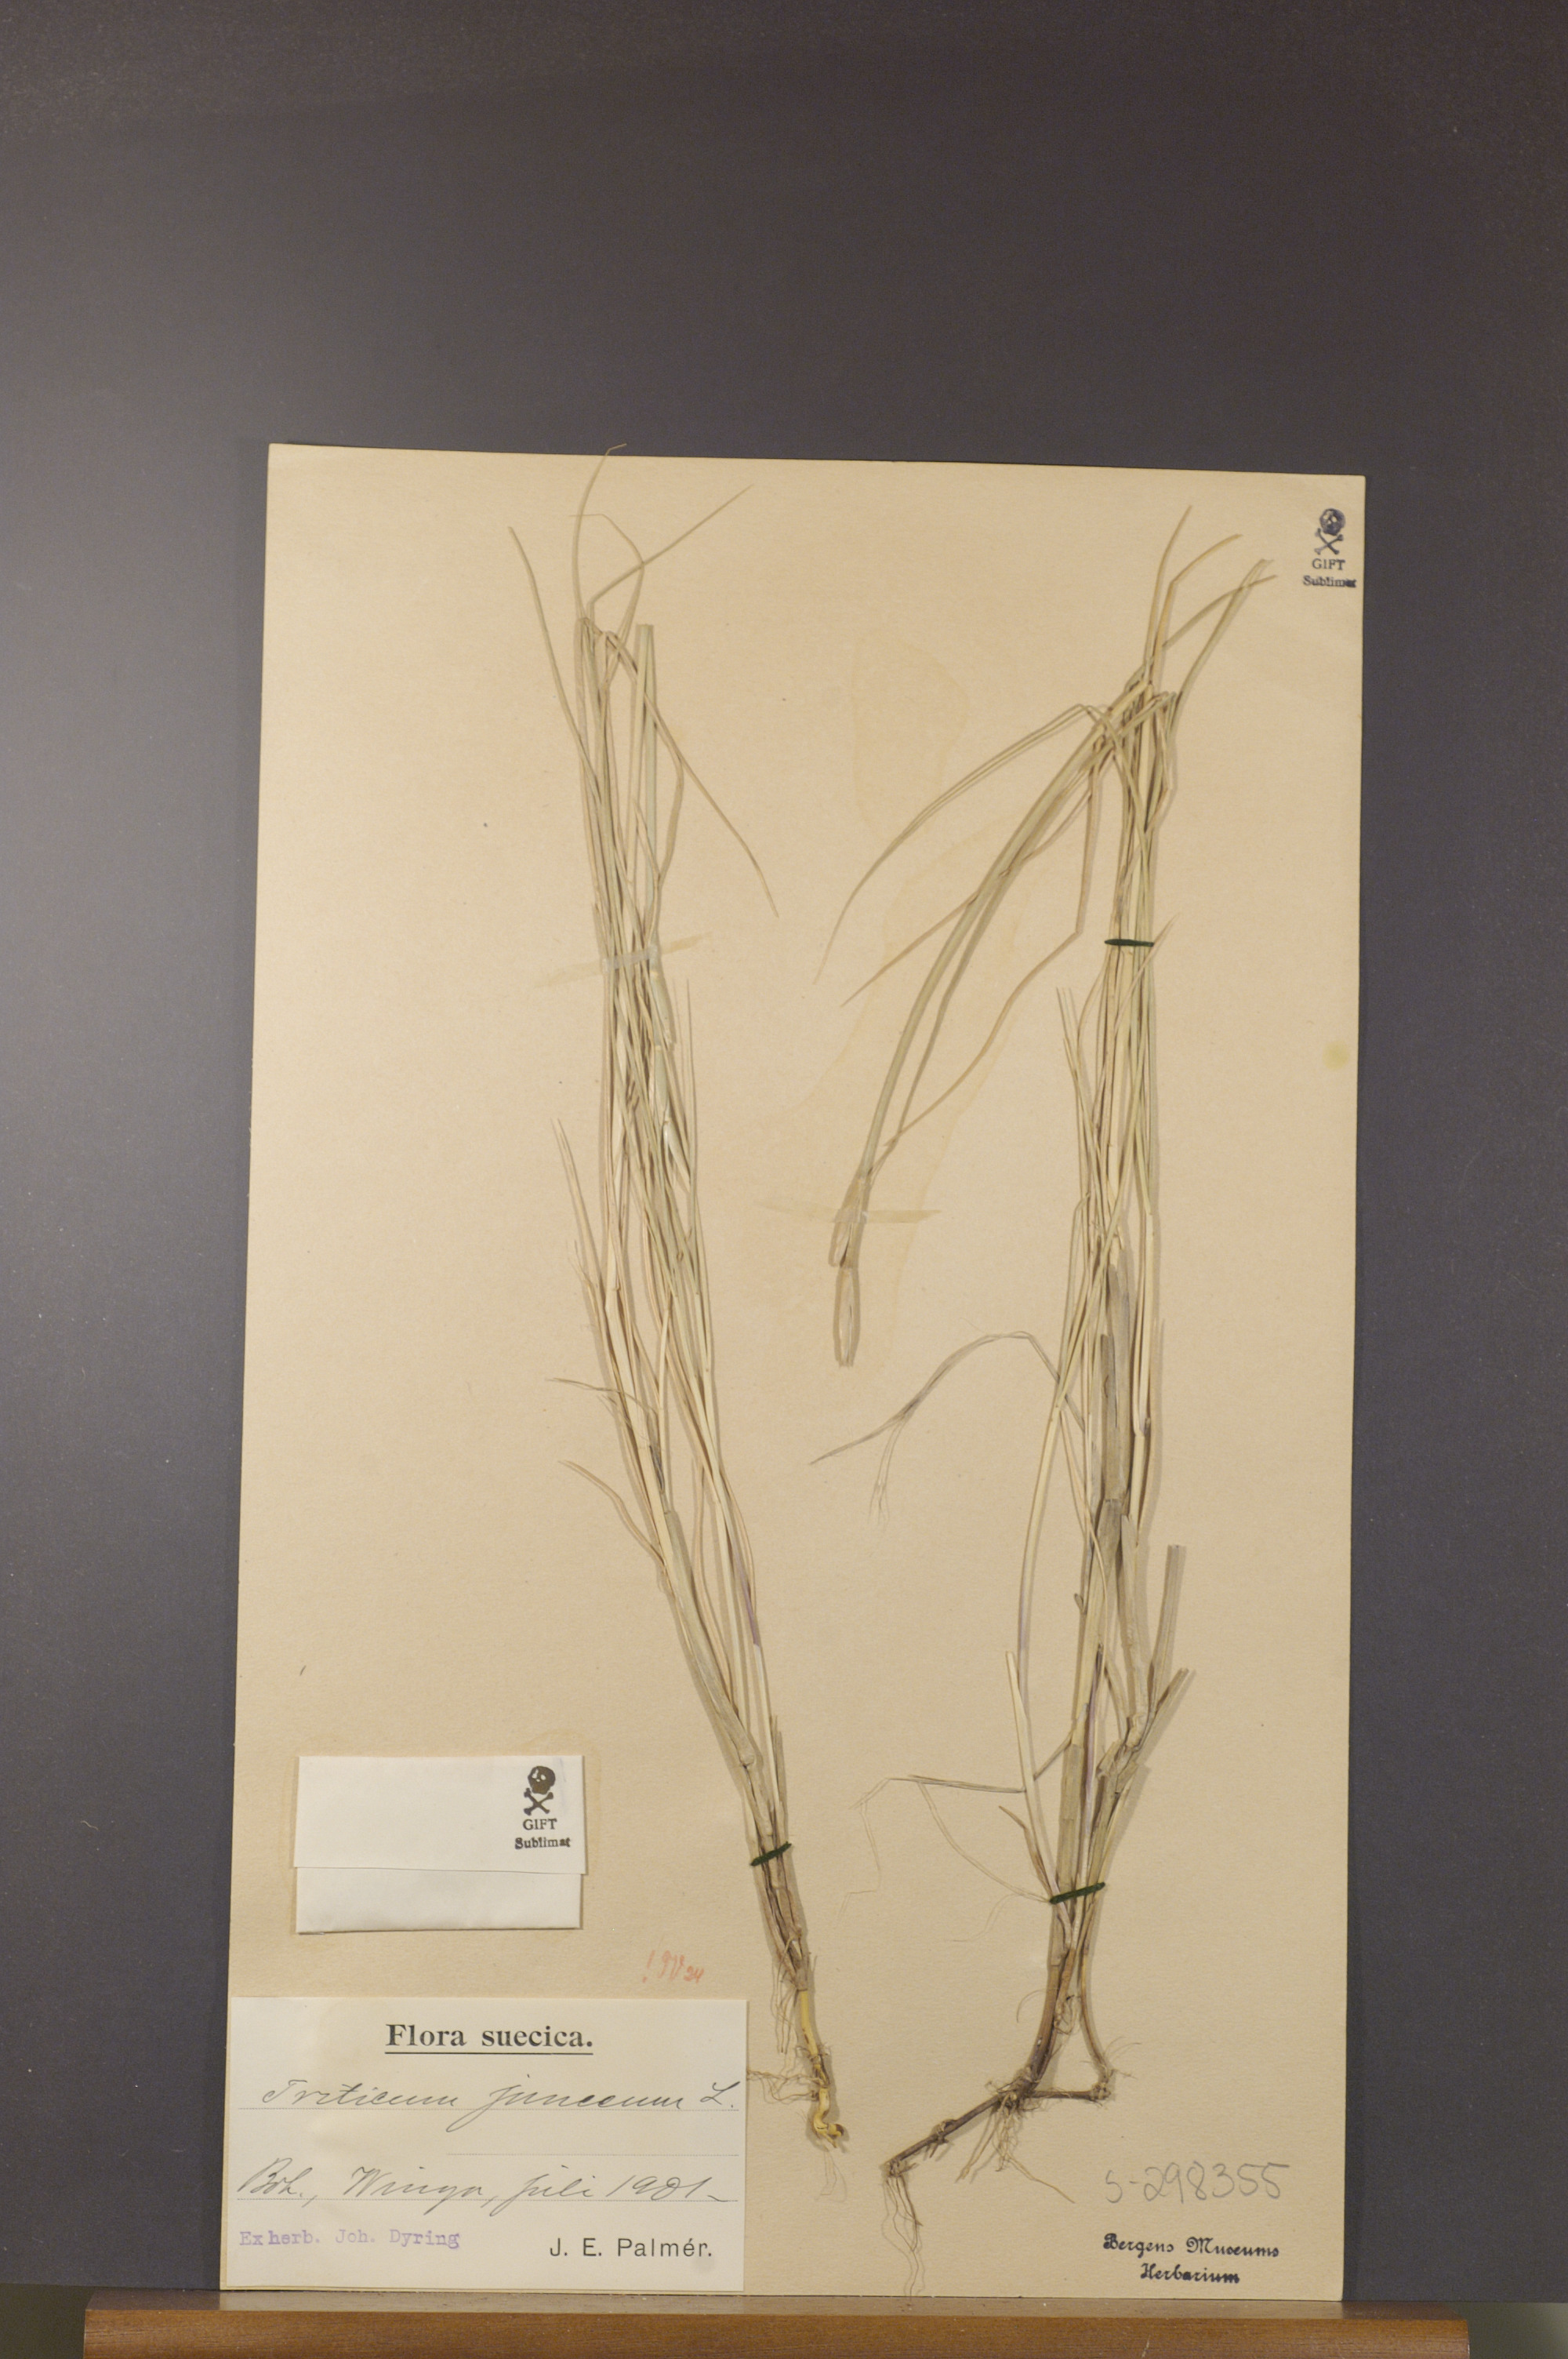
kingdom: Plantae
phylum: Tracheophyta
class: Liliopsida
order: Poales
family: Poaceae
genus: Thinopyrum
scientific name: Thinopyrum junceum
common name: Russian wheatgrass
